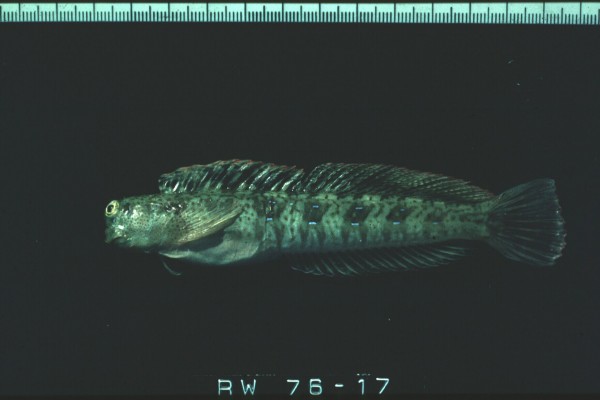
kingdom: Animalia
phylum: Chordata
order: Perciformes
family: Blenniidae
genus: Blenniella
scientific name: Blenniella periophthalmus
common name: Blue-dashed rockskipper
